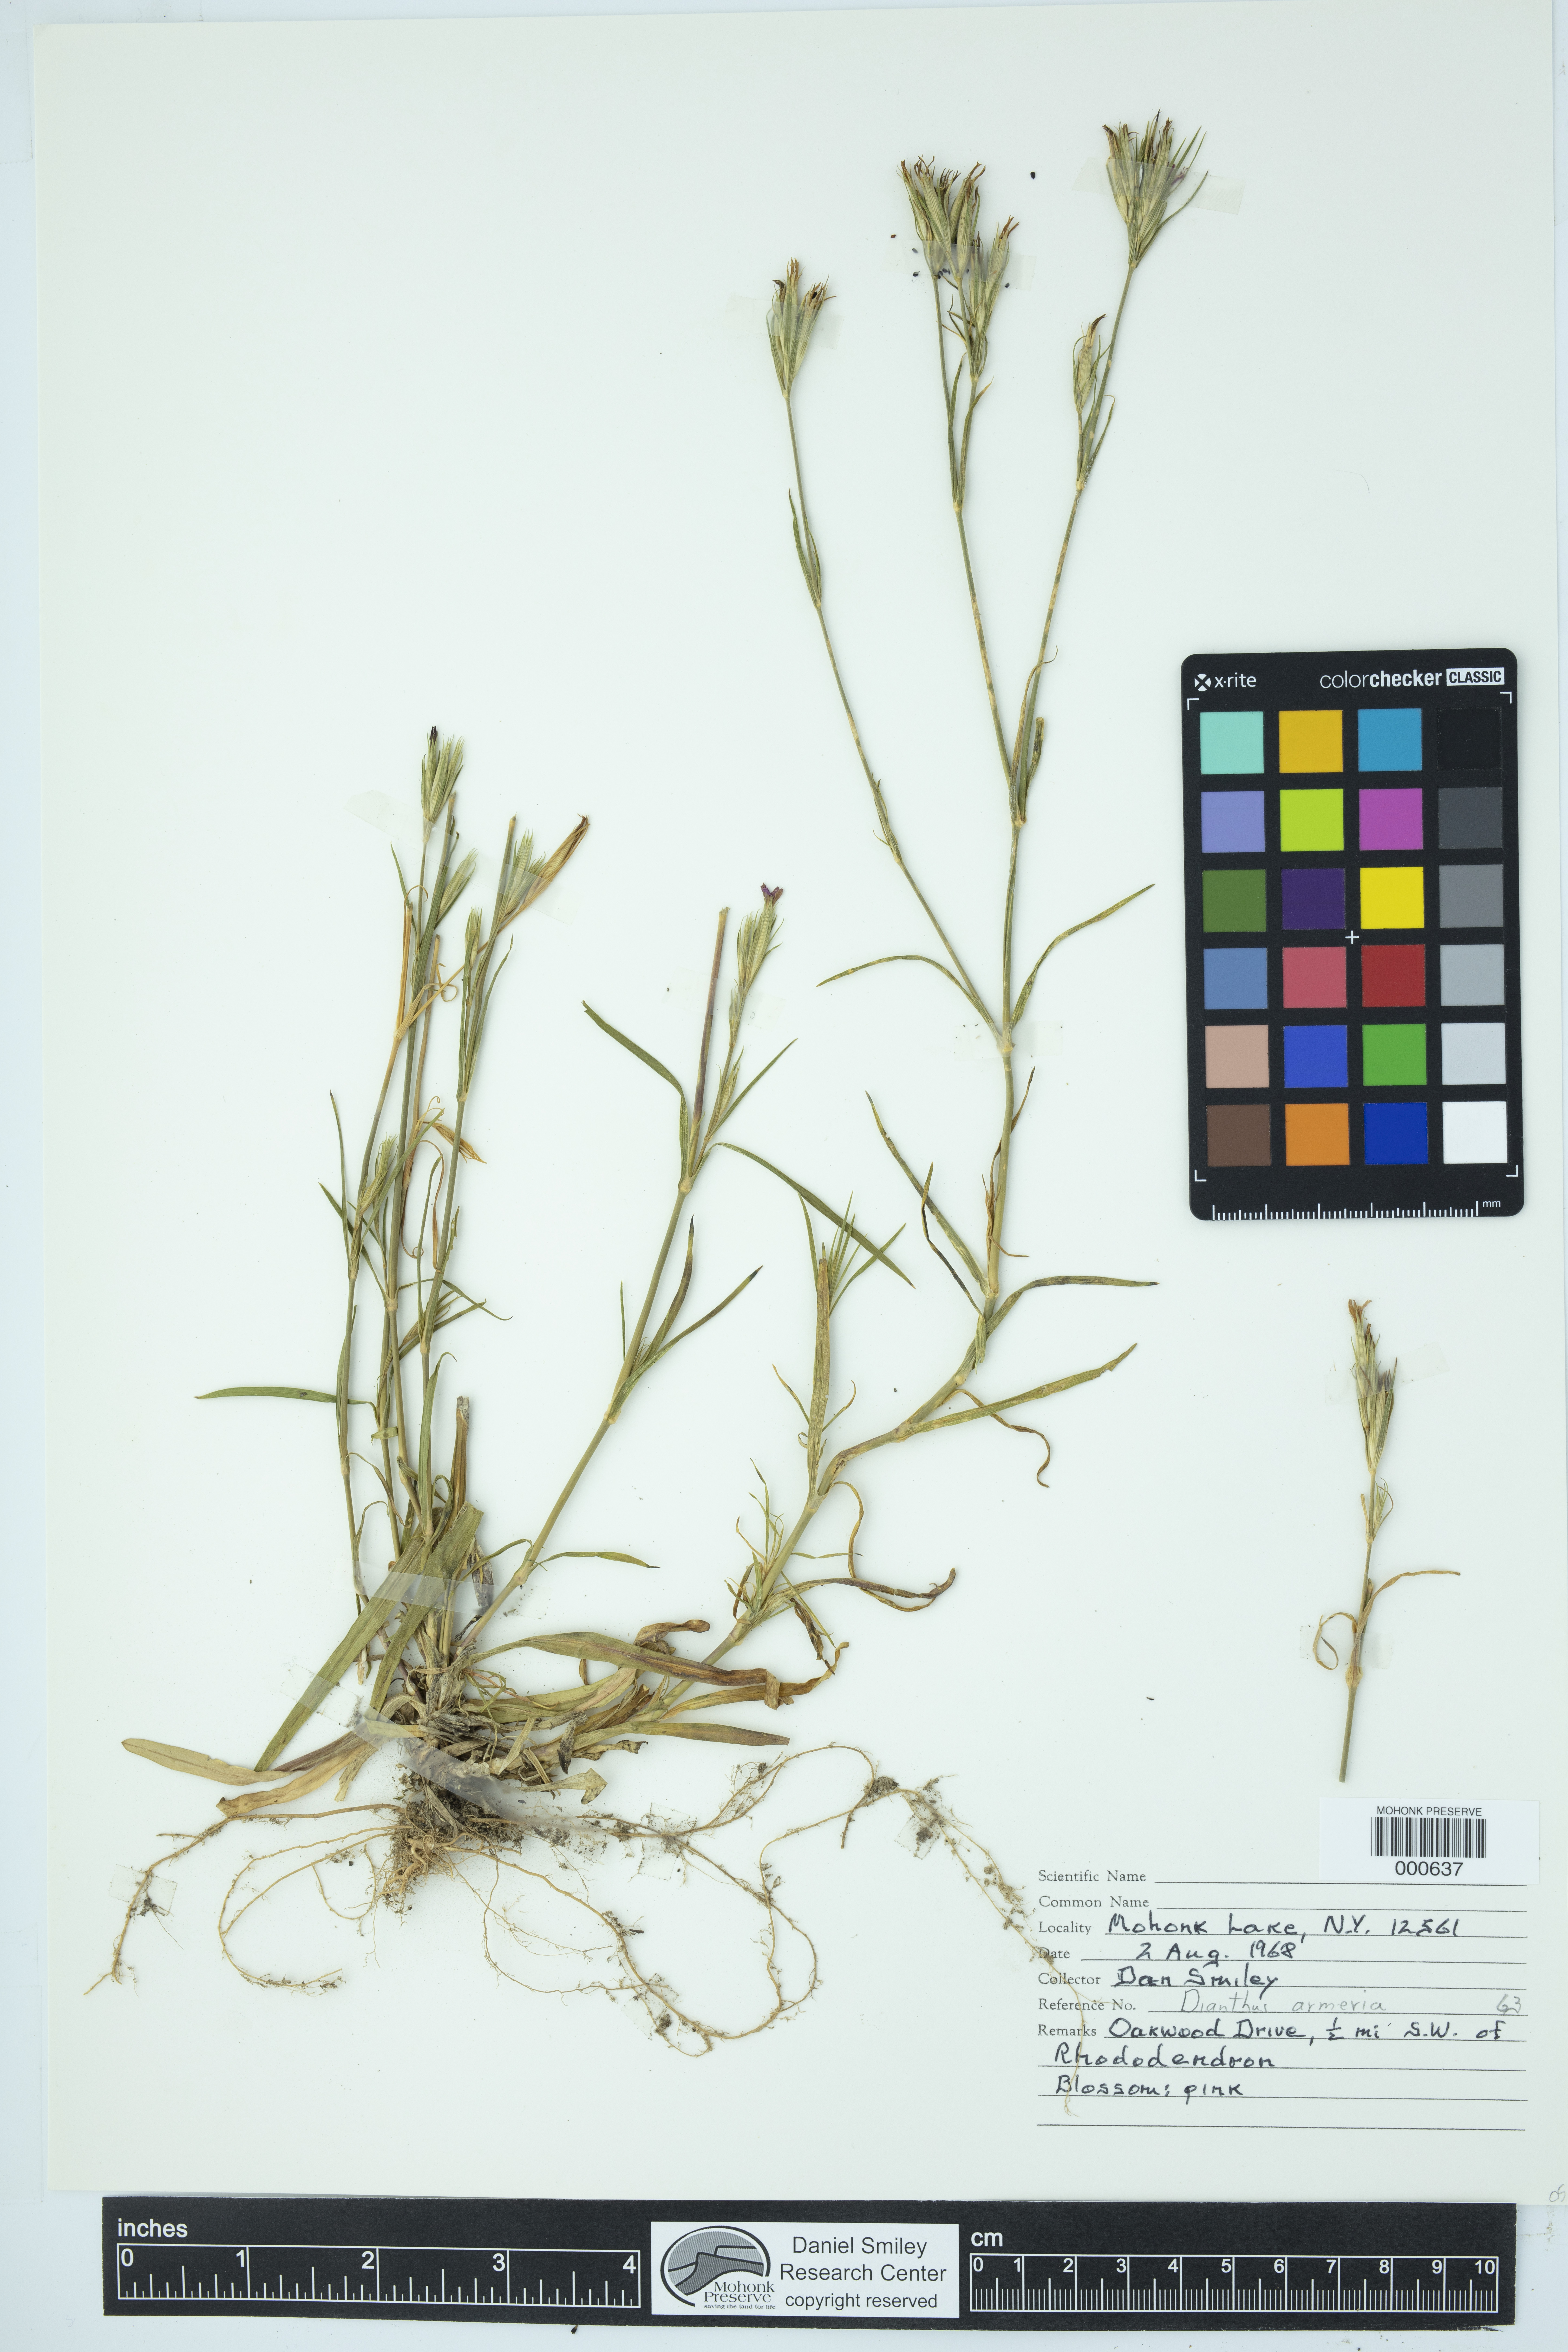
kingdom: Plantae
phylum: Tracheophyta
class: Magnoliopsida
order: Caryophyllales
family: Caryophyllaceae
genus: Dianthus
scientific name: Dianthus armeria
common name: Deptford pink
